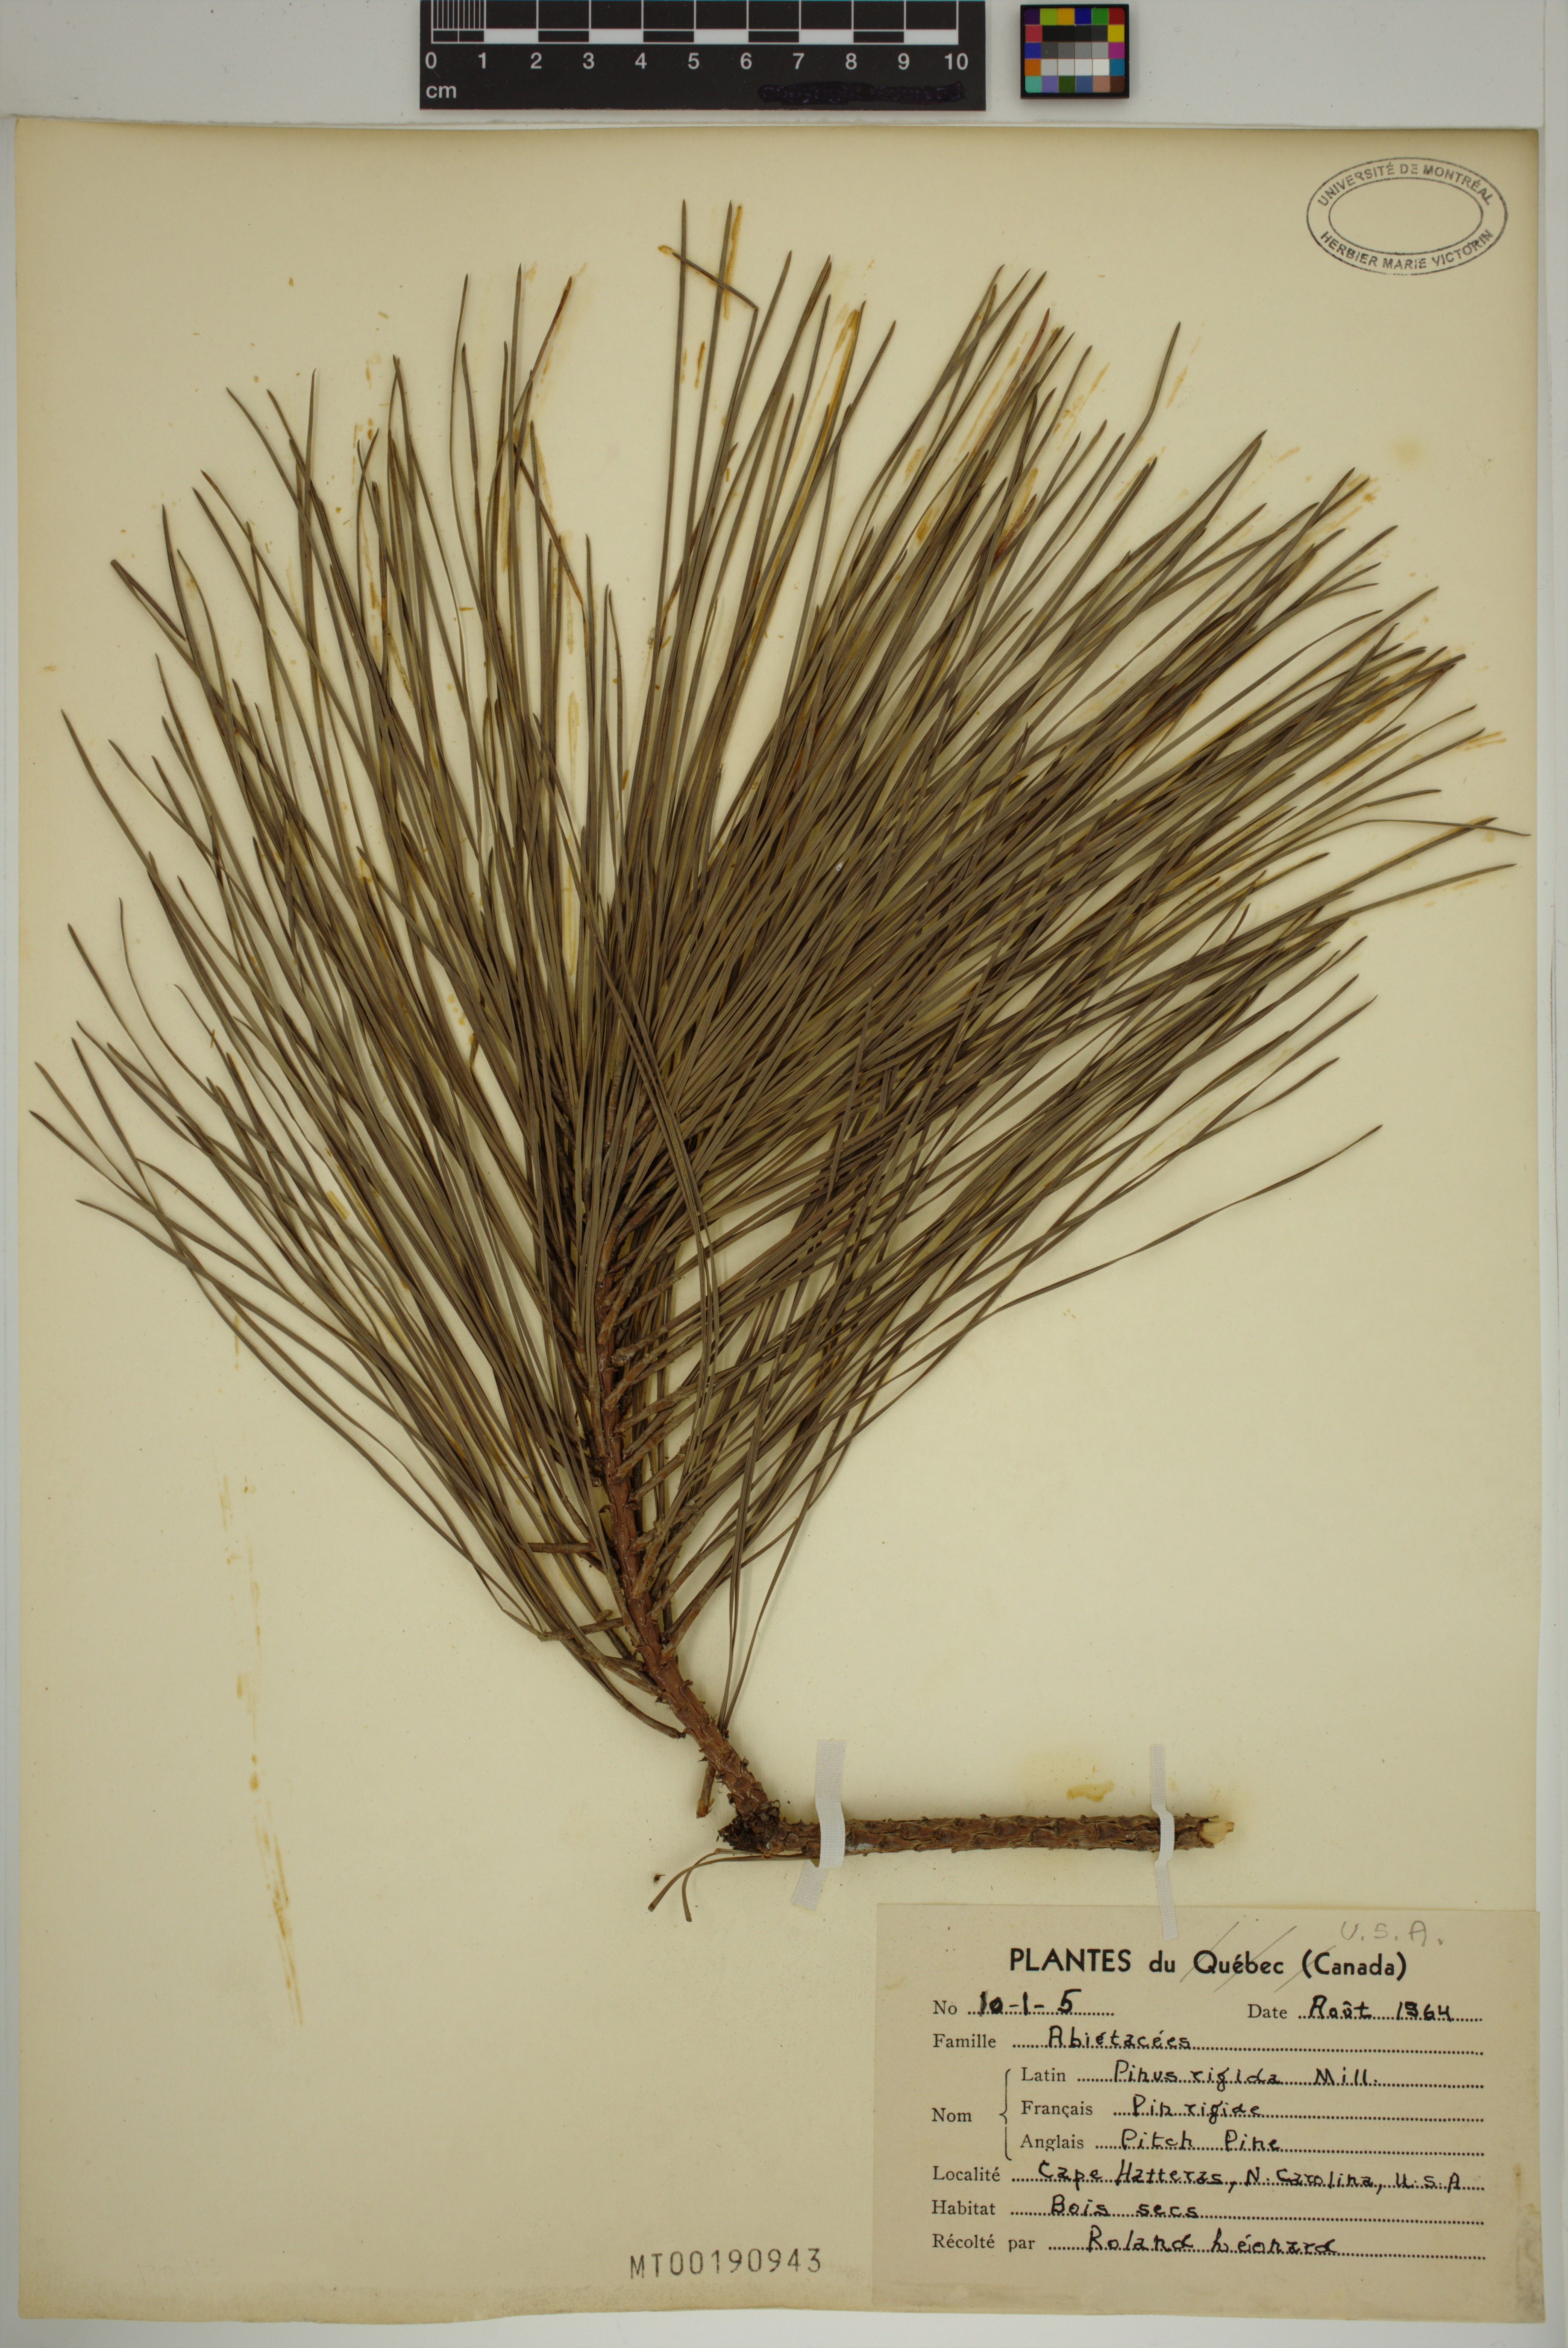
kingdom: Plantae
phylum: Tracheophyta
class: Pinopsida
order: Pinales
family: Pinaceae
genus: Pinus
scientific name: Pinus rigida
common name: Pitch pine
